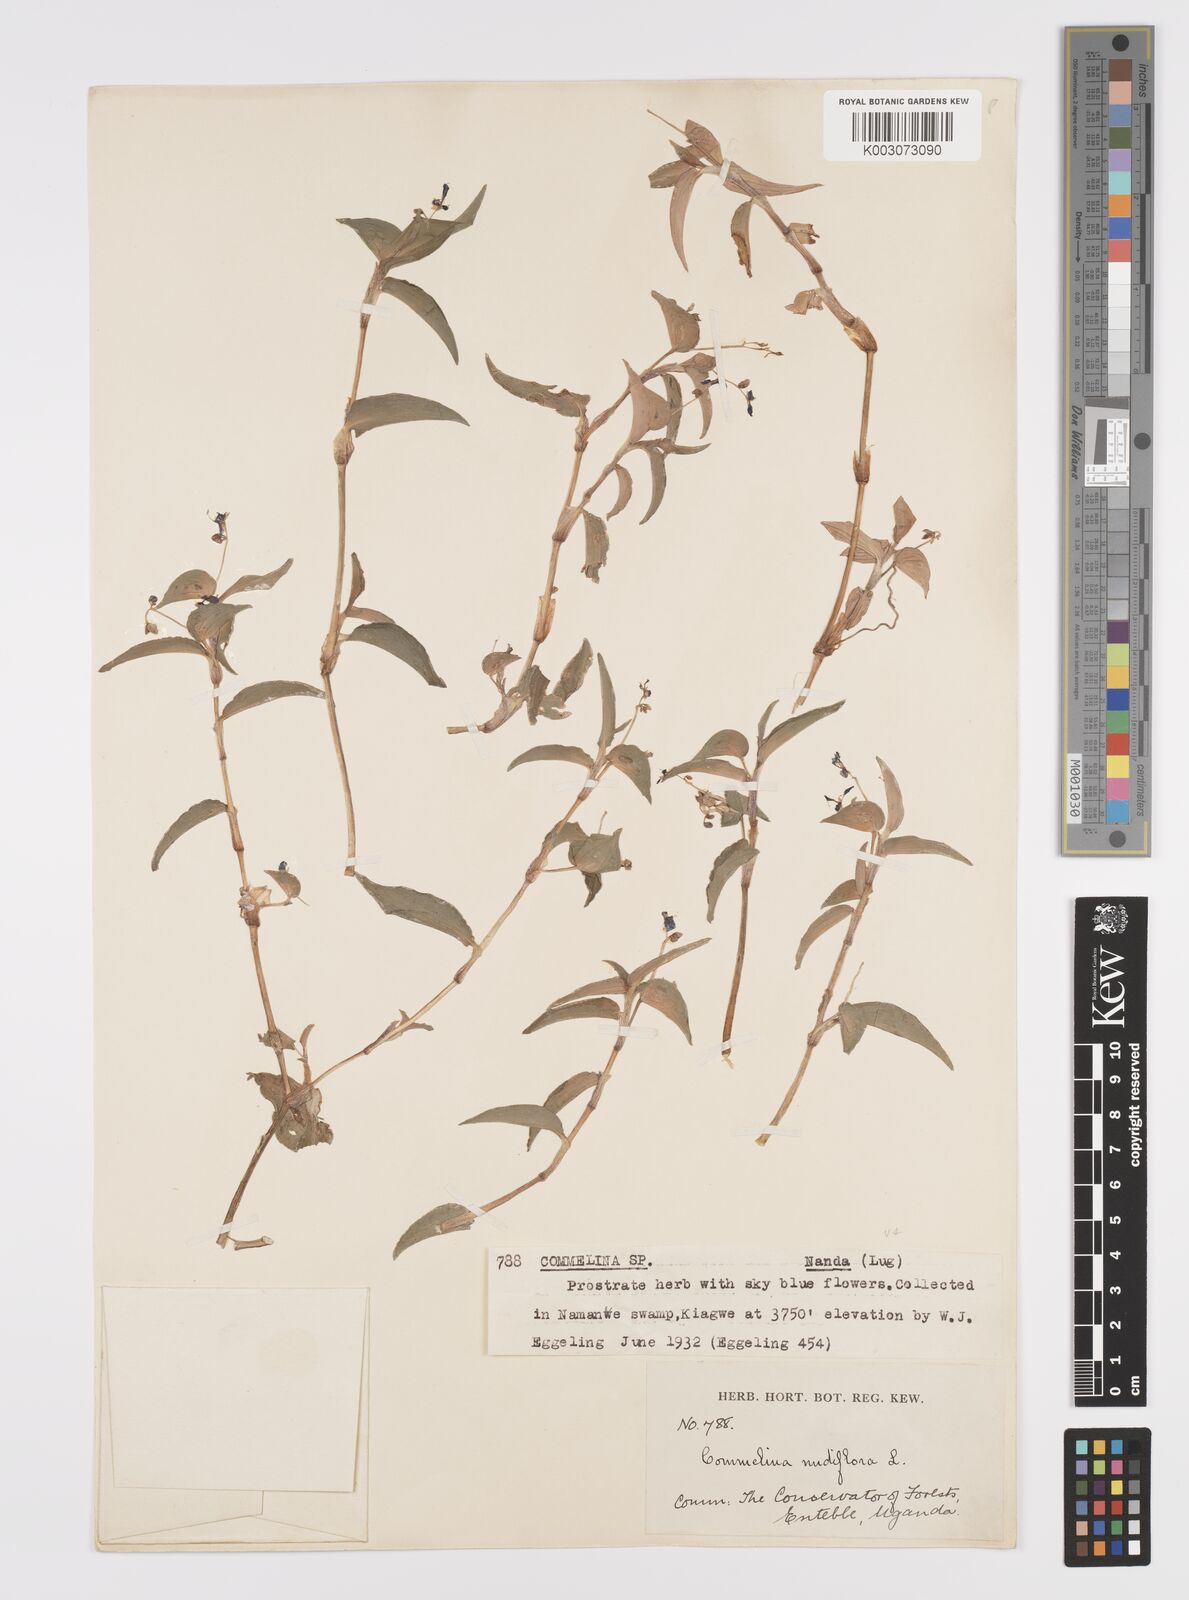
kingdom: Plantae
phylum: Tracheophyta
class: Liliopsida
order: Commelinales
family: Commelinaceae
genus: Commelina
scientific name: Commelina diffusa
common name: Climbing dayflower
